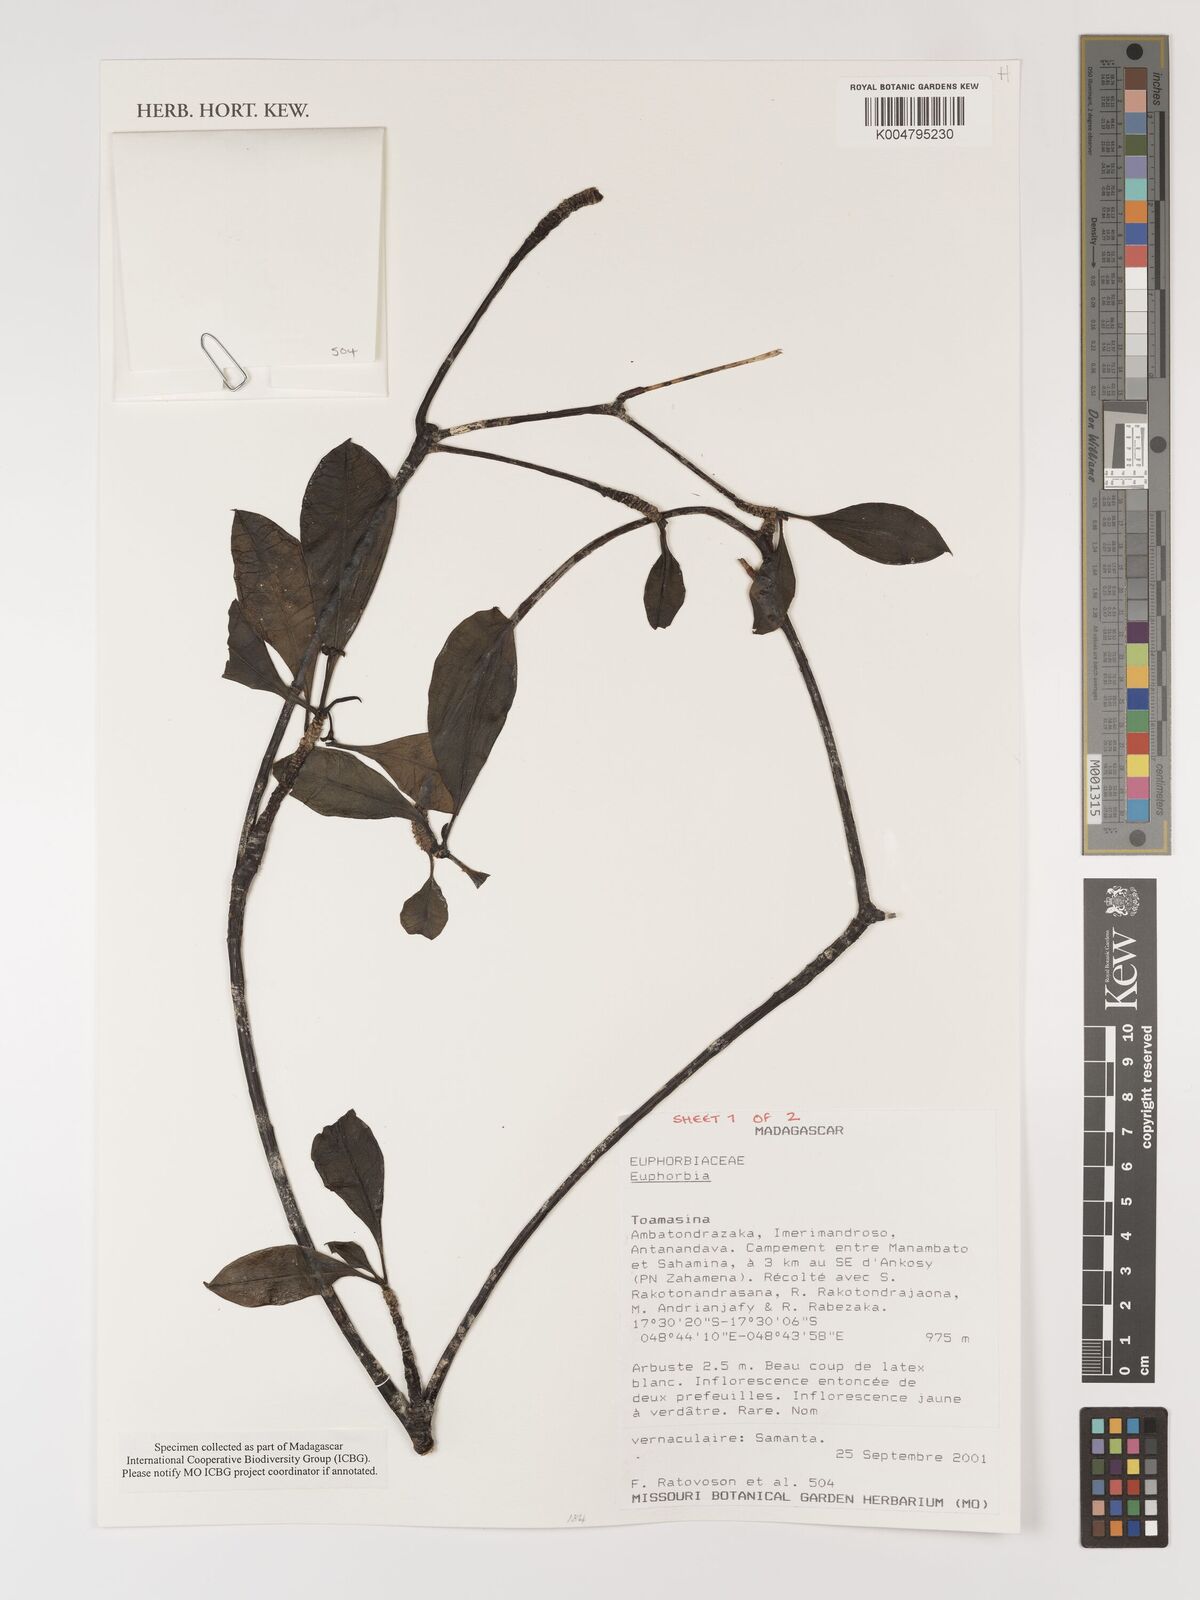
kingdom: Plantae
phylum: Tracheophyta
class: Magnoliopsida
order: Malpighiales
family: Euphorbiaceae
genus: Euphorbia
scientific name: Euphorbia
